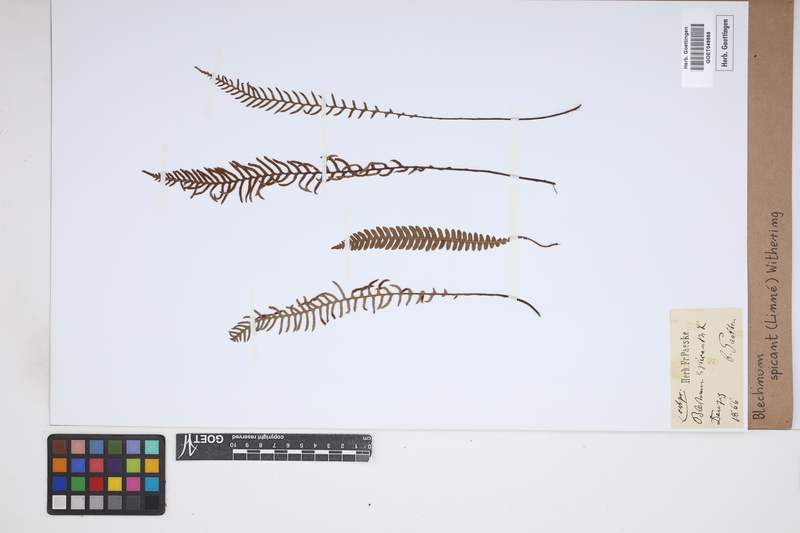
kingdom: Plantae
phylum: Tracheophyta
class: Polypodiopsida
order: Polypodiales
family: Blechnaceae
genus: Struthiopteris
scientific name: Struthiopteris spicant
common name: Deer fern
